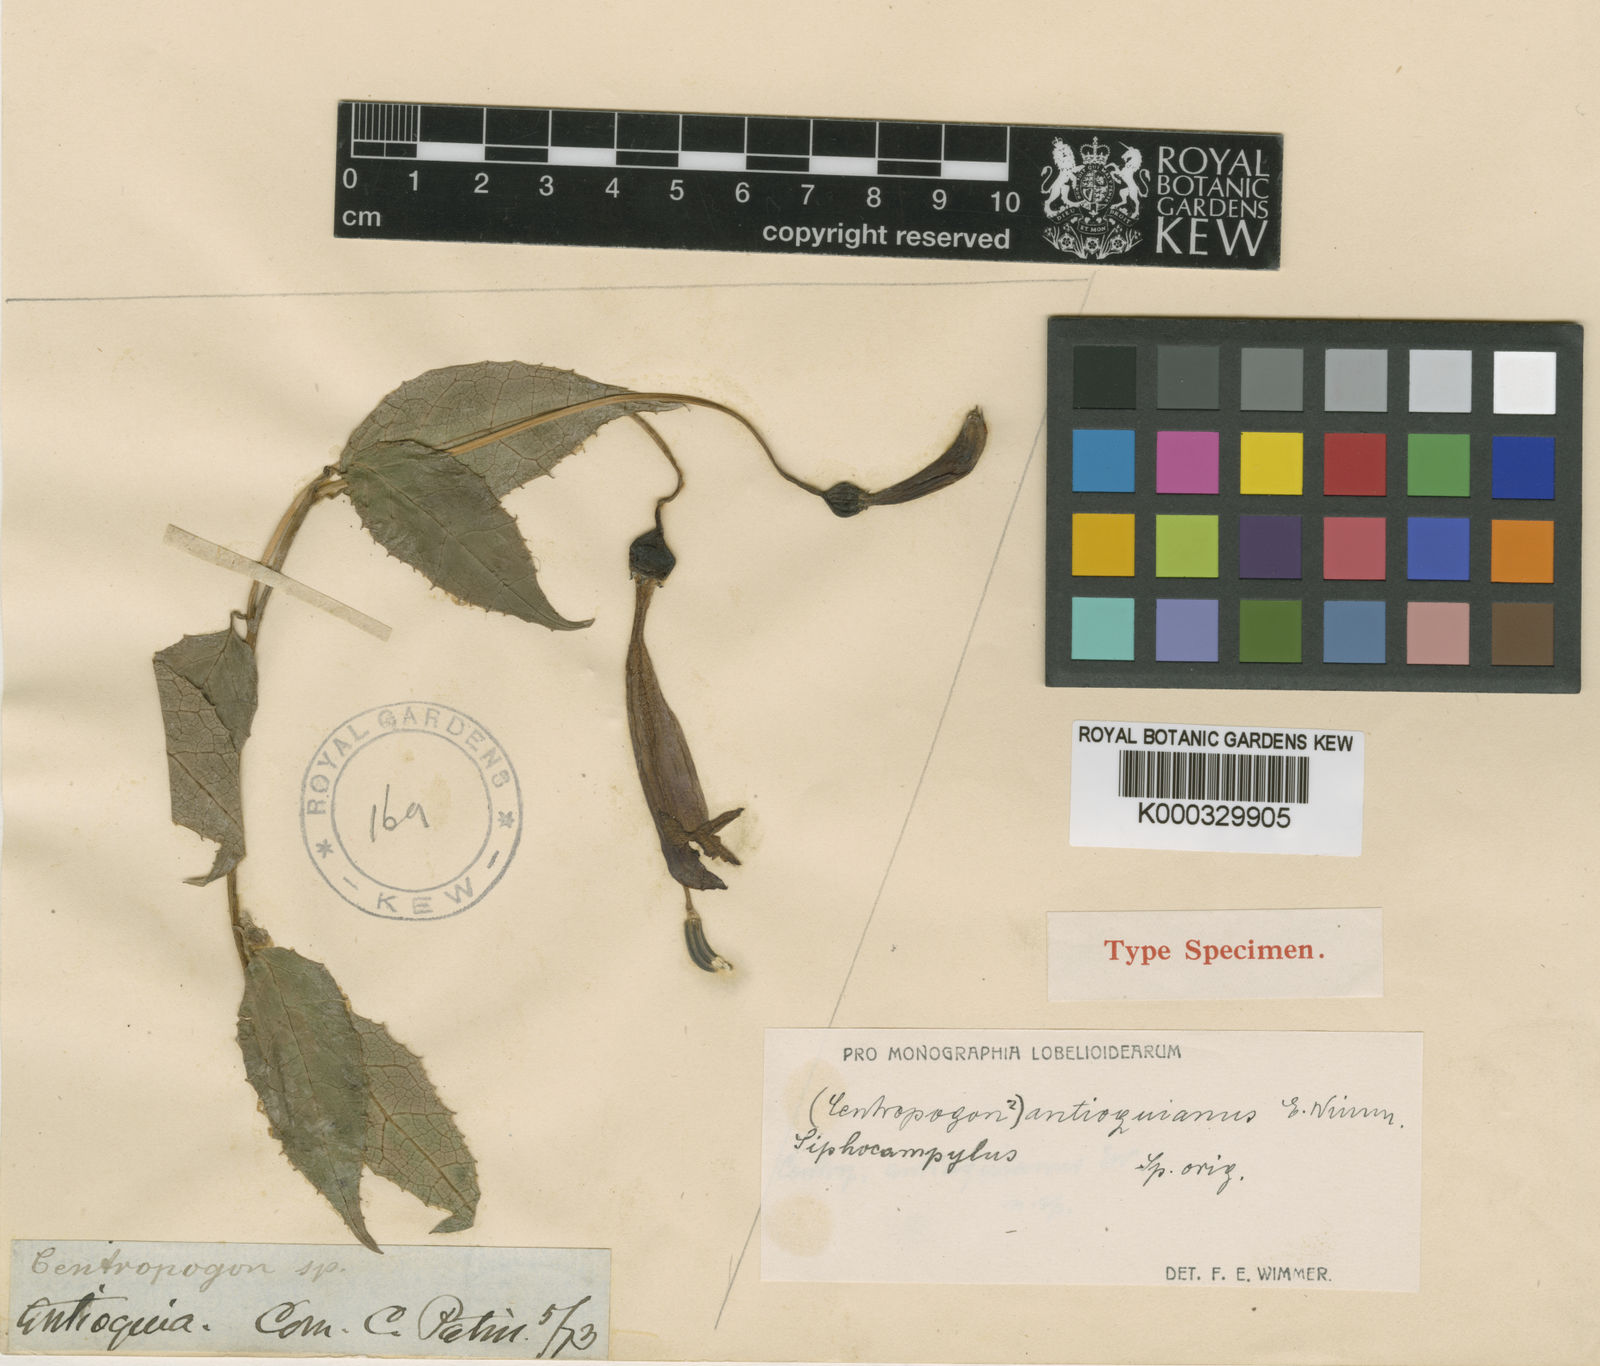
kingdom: Plantae
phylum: Tracheophyta
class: Magnoliopsida
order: Asterales
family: Campanulaceae
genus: Siphocampylus
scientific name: Siphocampylus antioquianus
